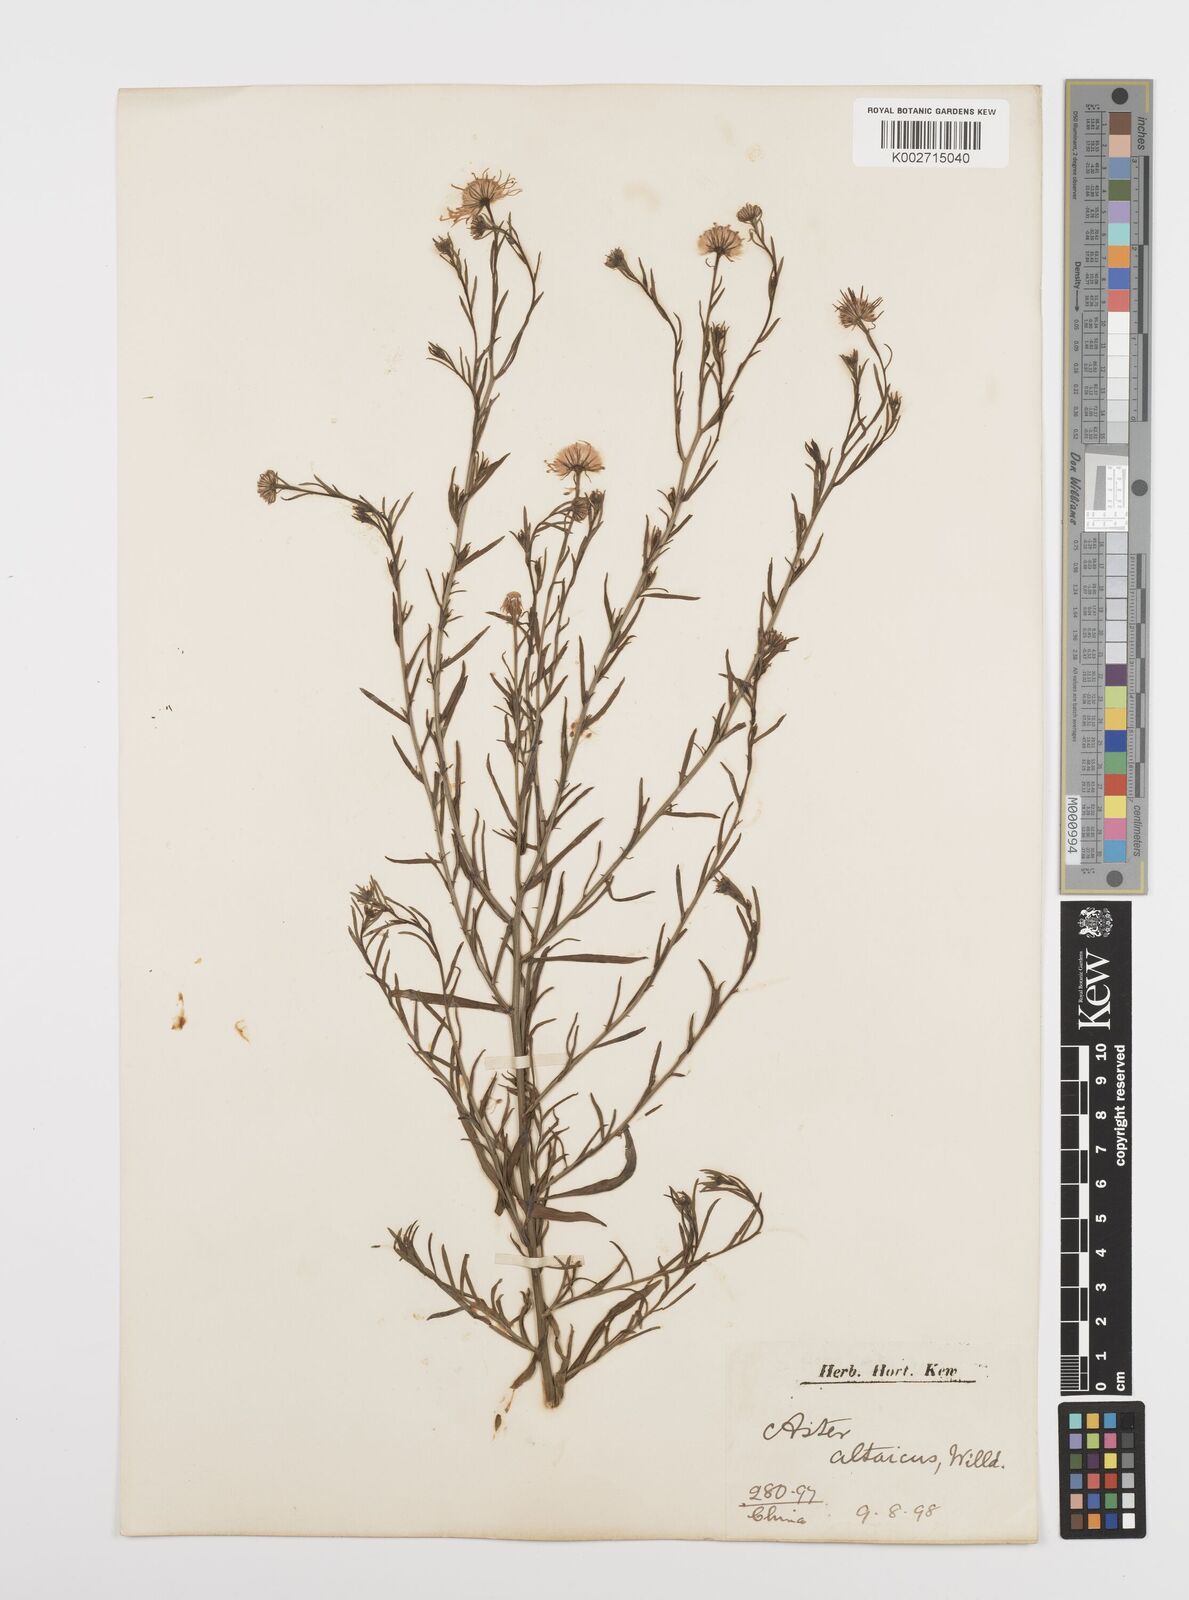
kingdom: Plantae
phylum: Tracheophyta
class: Magnoliopsida
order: Asterales
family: Asteraceae
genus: Heteropappus
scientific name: Heteropappus altaicus
